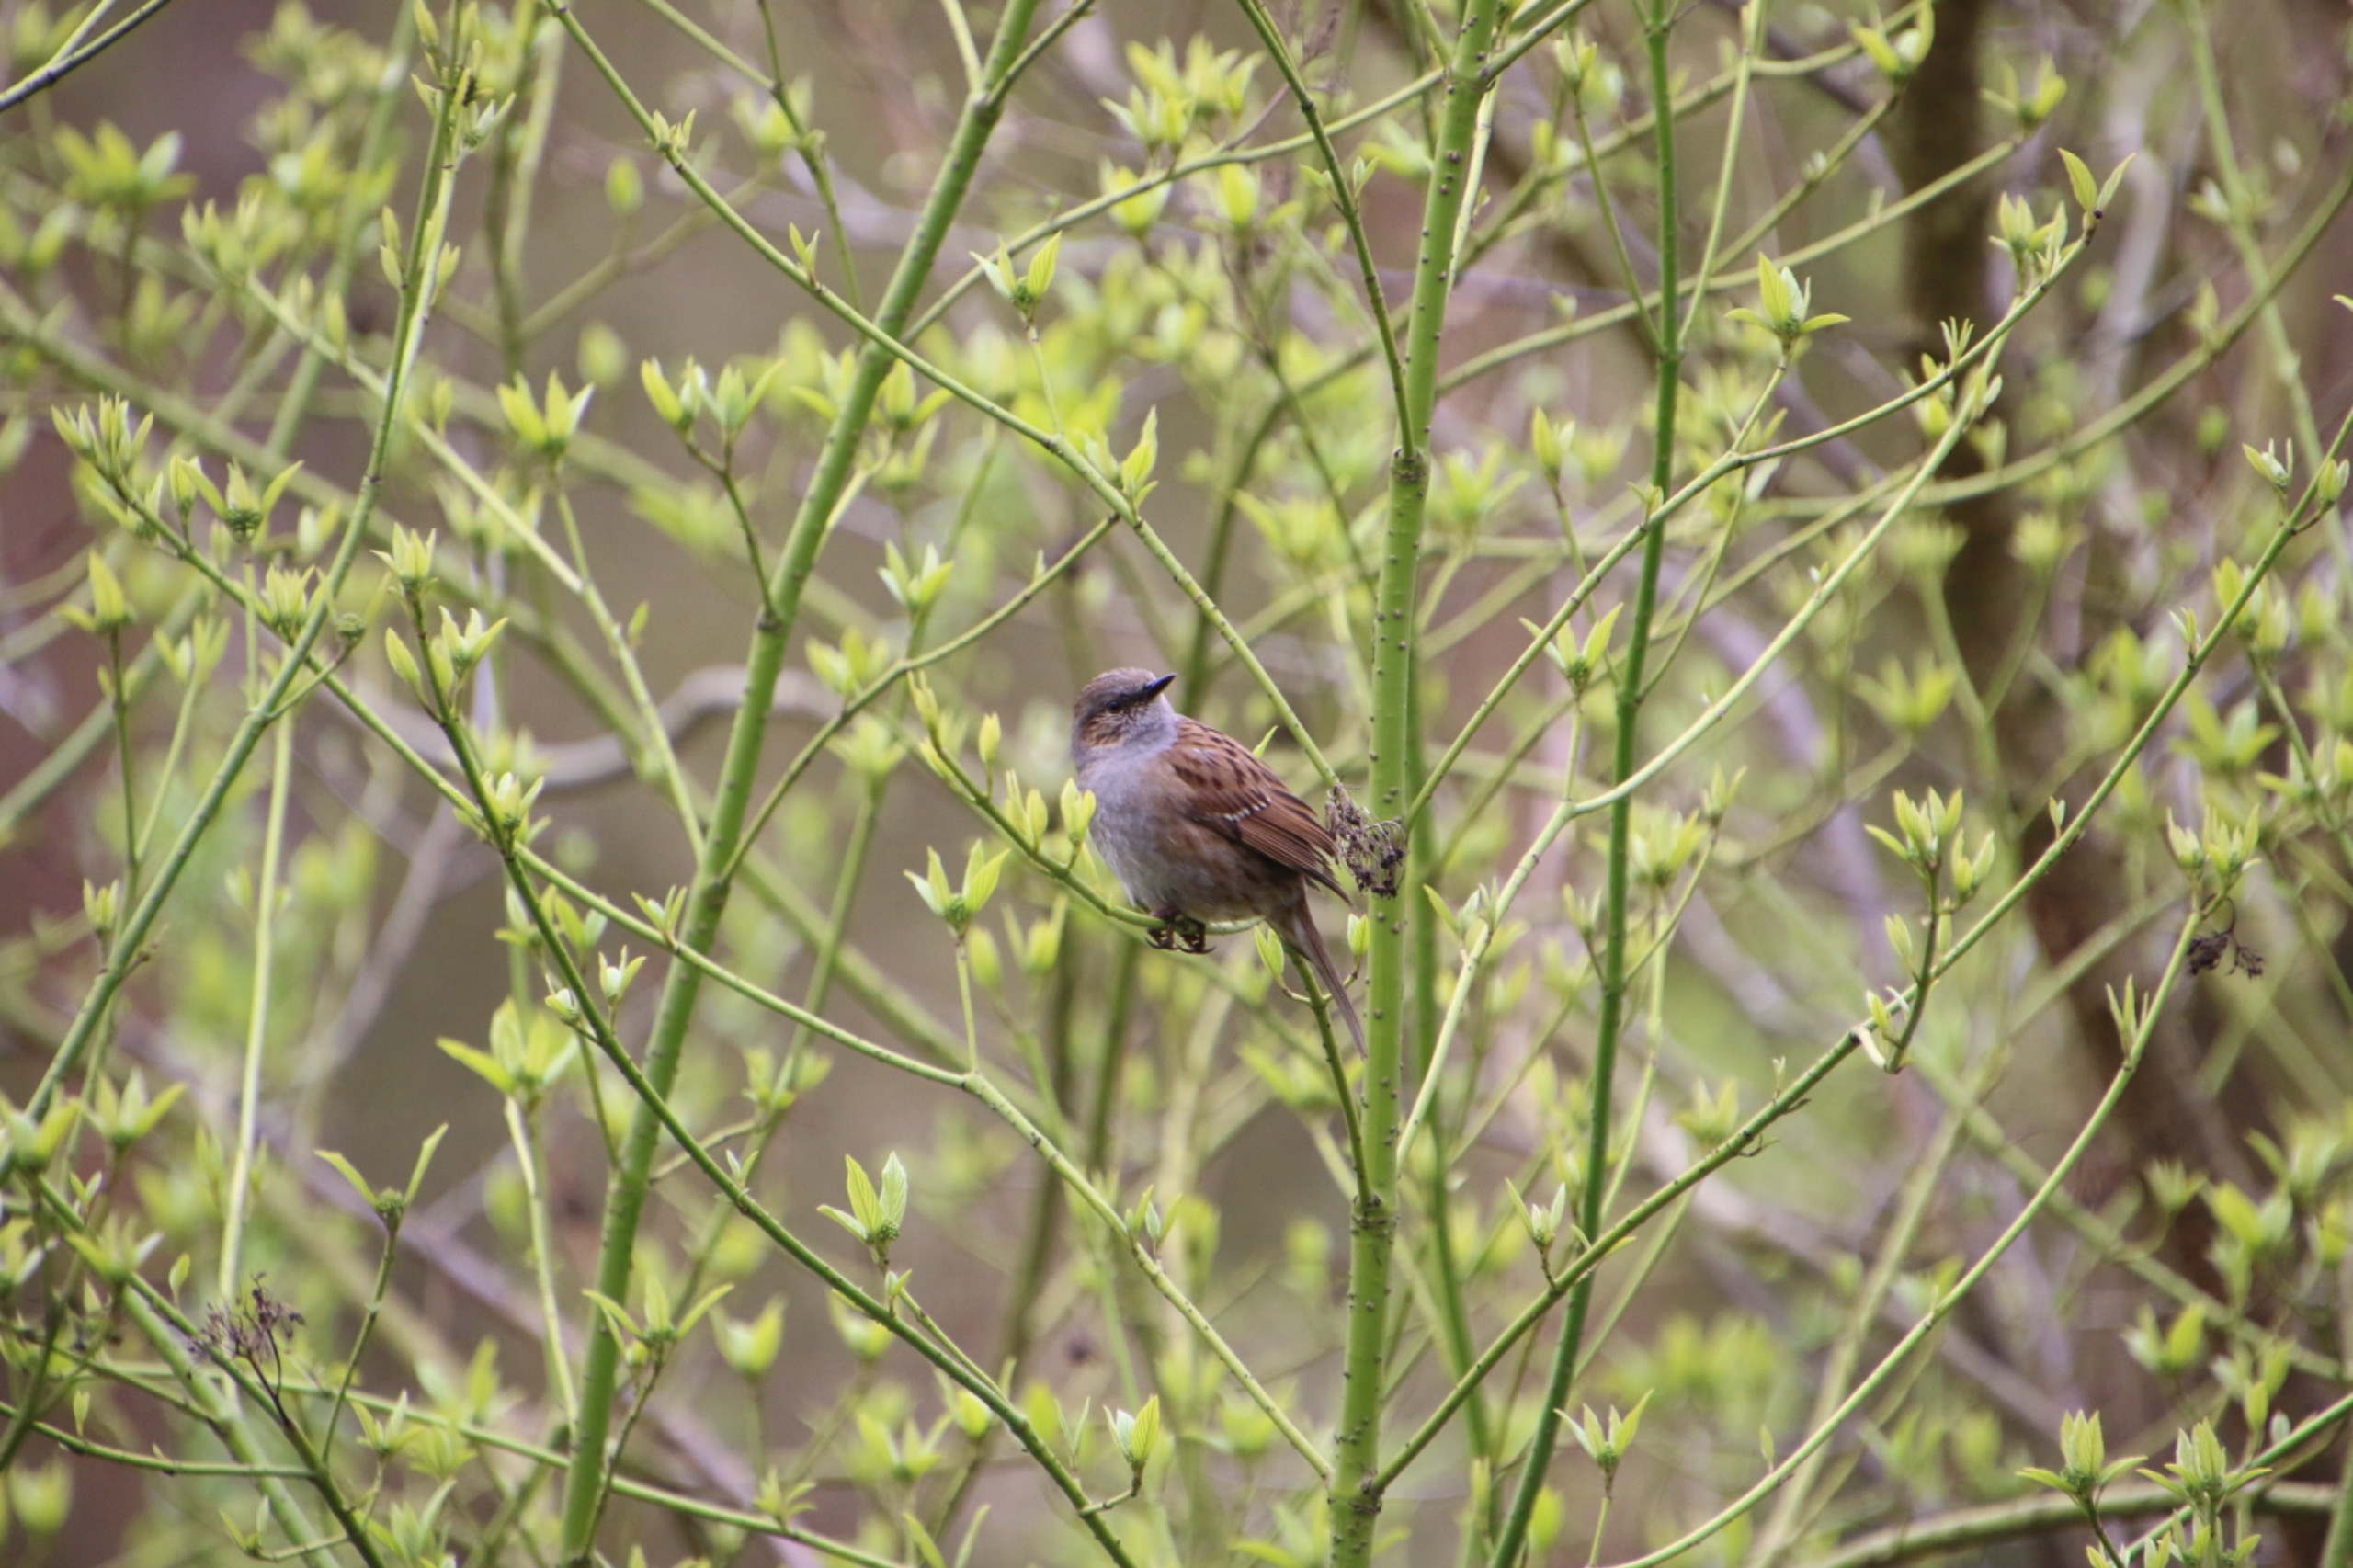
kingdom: Animalia
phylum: Chordata
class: Aves
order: Passeriformes
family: Prunellidae
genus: Prunella
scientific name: Prunella modularis
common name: Jernspurv
